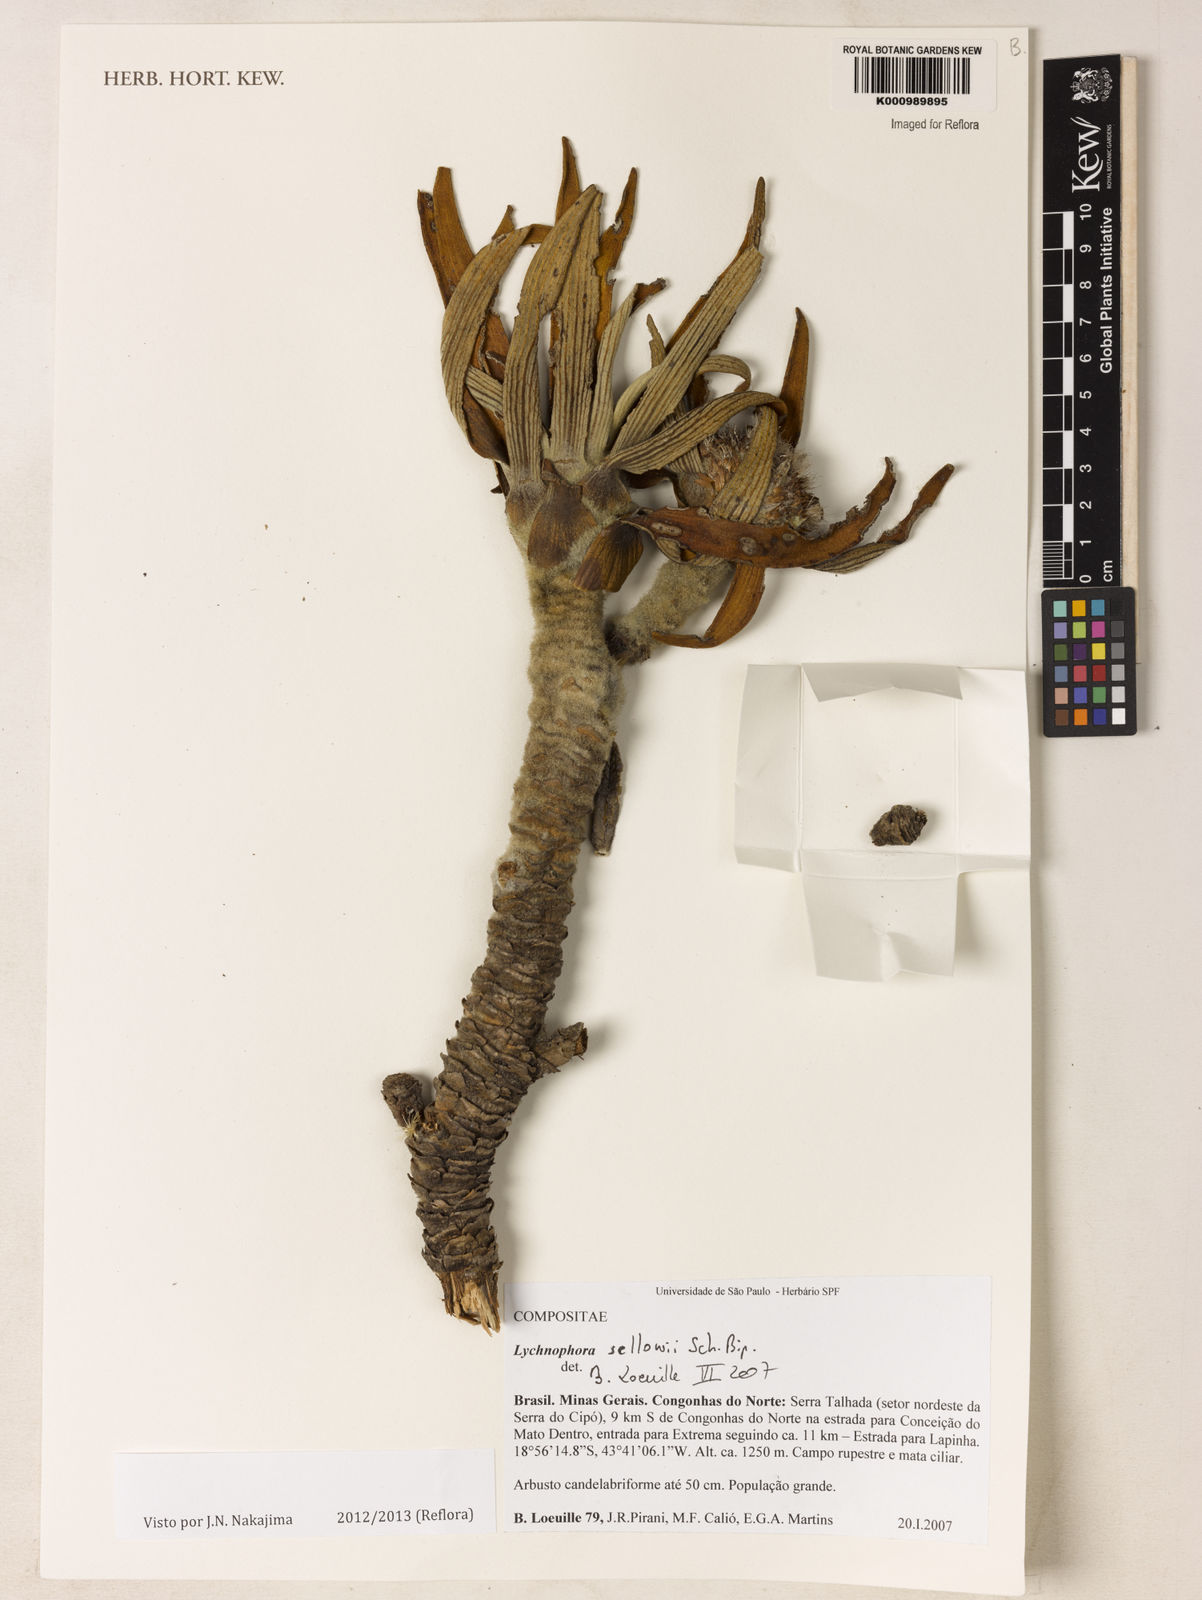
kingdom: Plantae
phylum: Tracheophyta
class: Magnoliopsida
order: Asterales
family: Asteraceae
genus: Lychnophora
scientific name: Lychnophora
